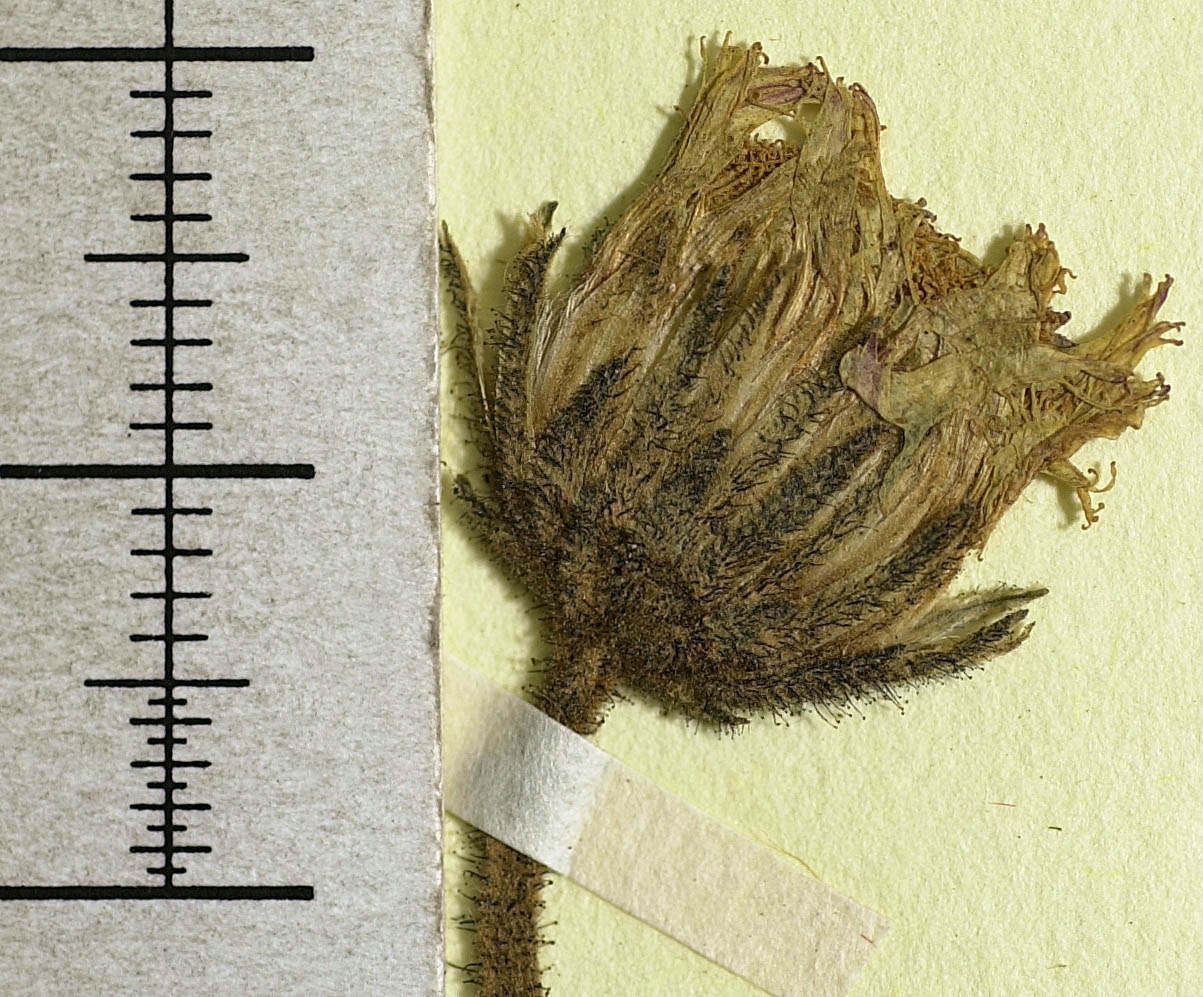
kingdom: Plantae
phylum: Tracheophyta
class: Magnoliopsida
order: Asterales
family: Asteraceae
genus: Pilosella
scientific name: Pilosella officinarum
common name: Mouse-ear hawkweed
